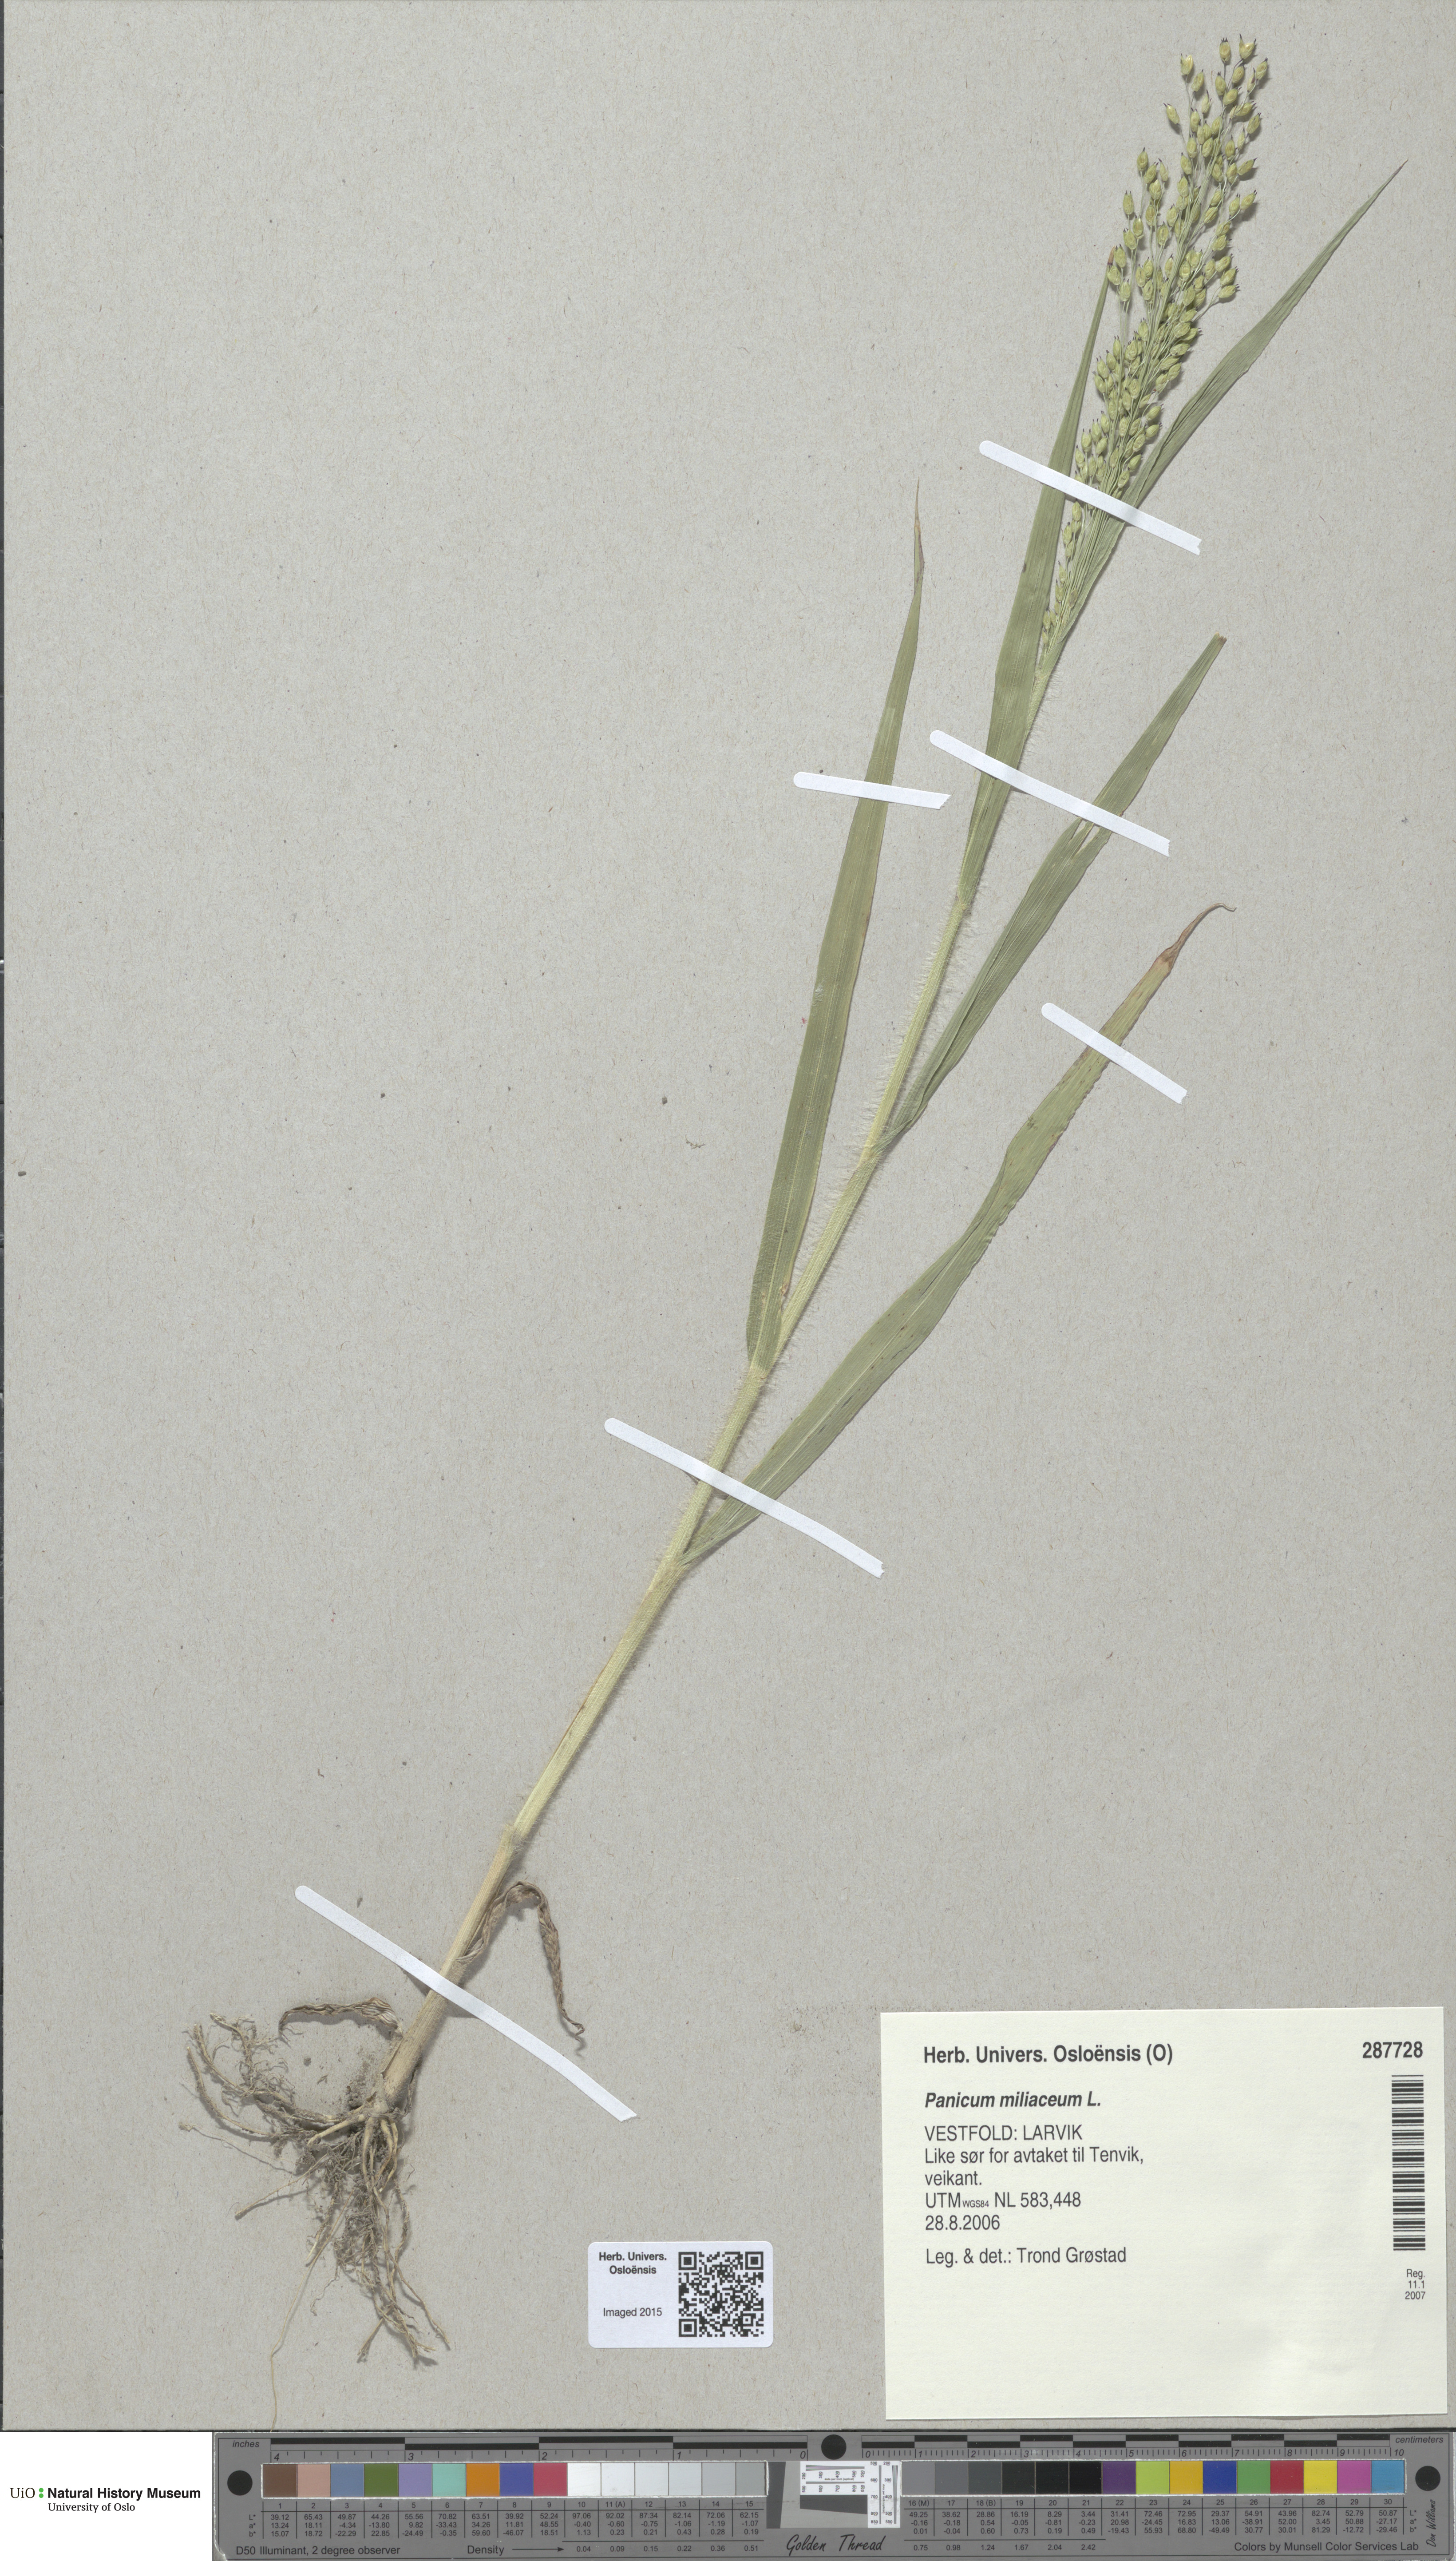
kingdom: Plantae
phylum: Tracheophyta
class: Liliopsida
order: Poales
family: Poaceae
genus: Panicum
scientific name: Panicum miliaceum
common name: Common millet
